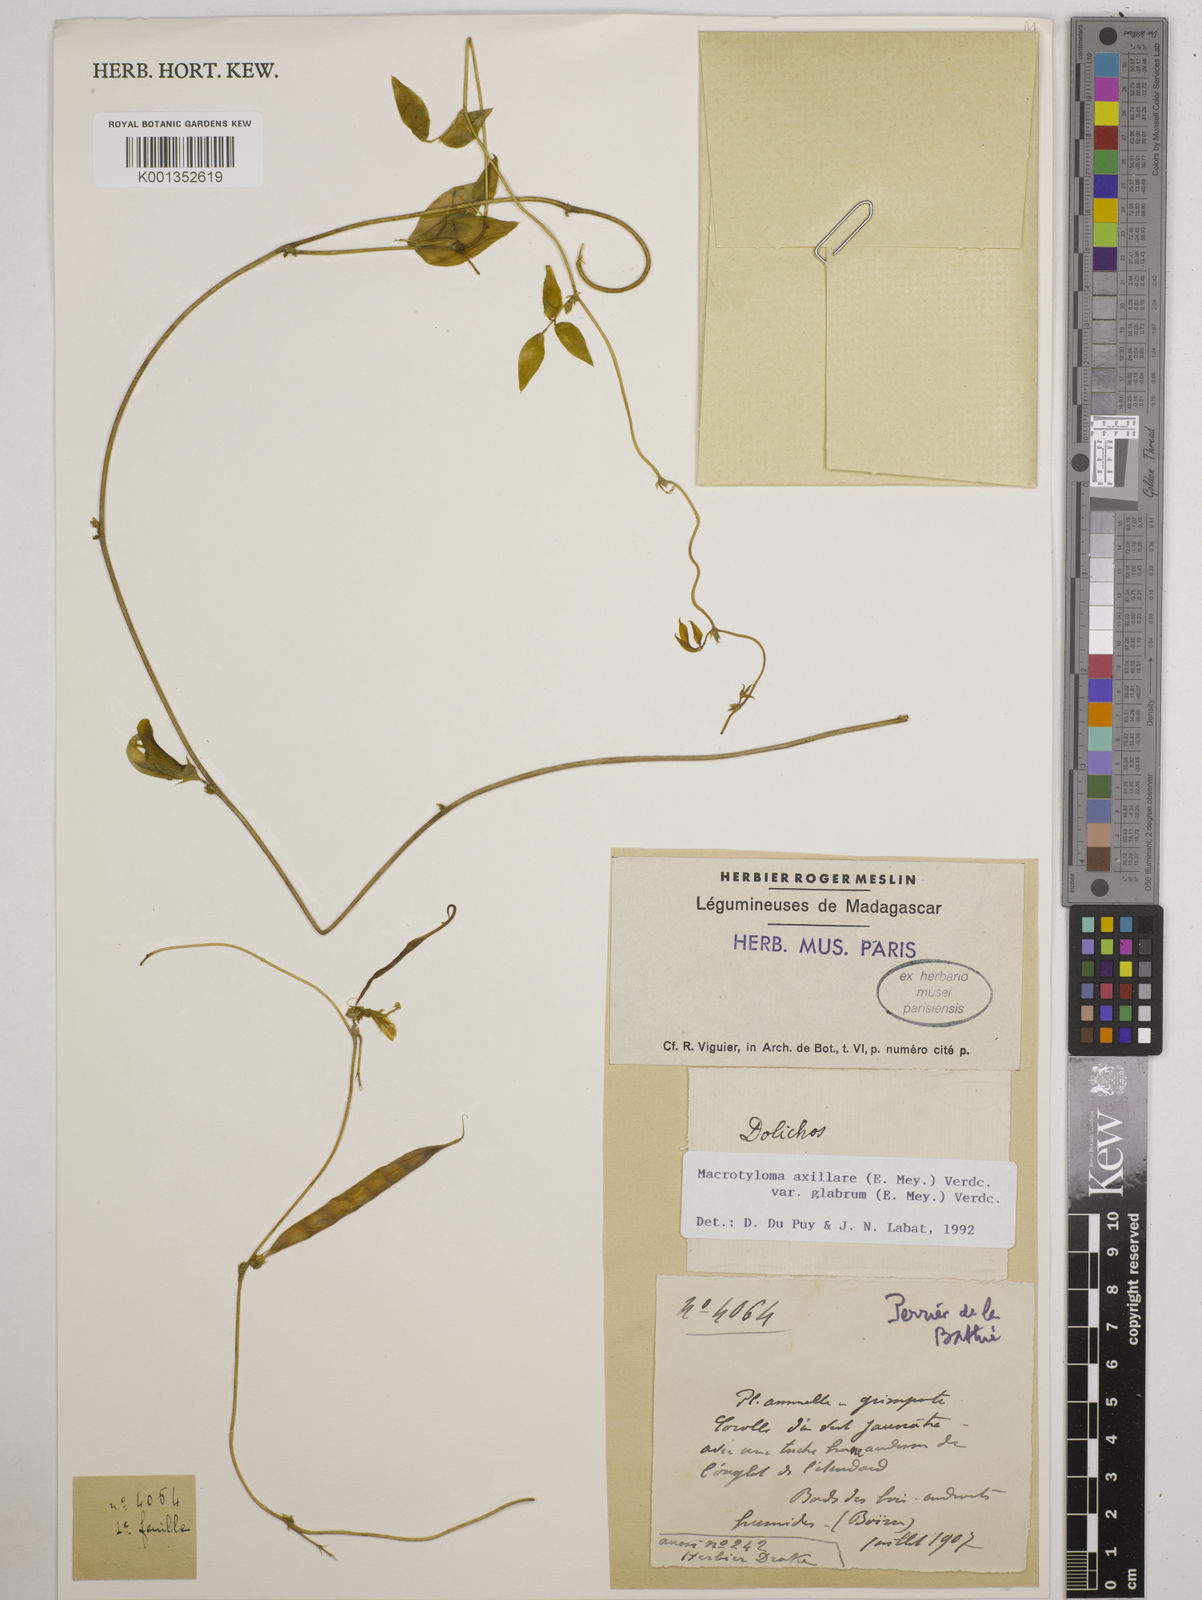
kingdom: Plantae
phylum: Tracheophyta
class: Magnoliopsida
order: Fabales
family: Fabaceae
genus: Macrotyloma
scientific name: Macrotyloma
